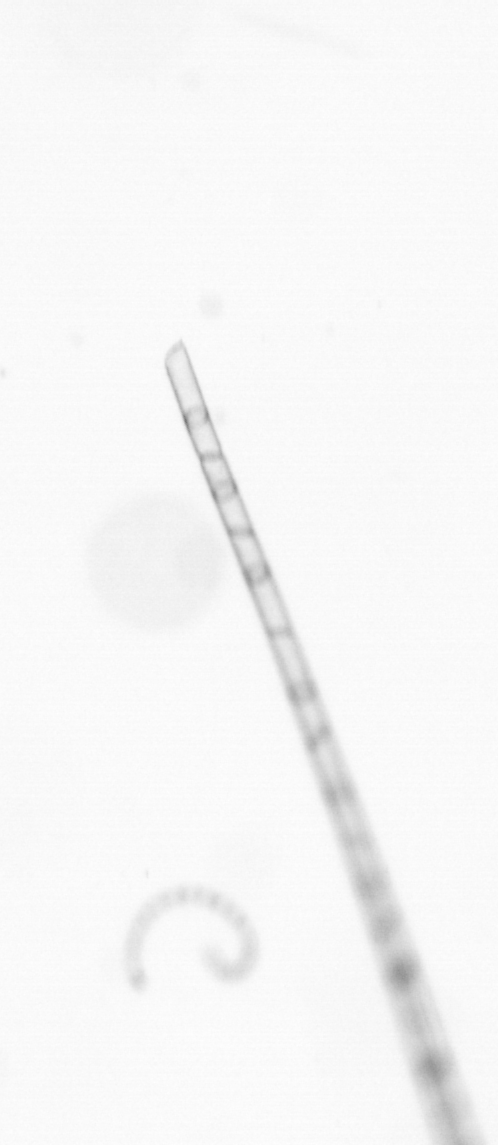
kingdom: Chromista
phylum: Ochrophyta
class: Bacillariophyceae
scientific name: Bacillariophyceae
